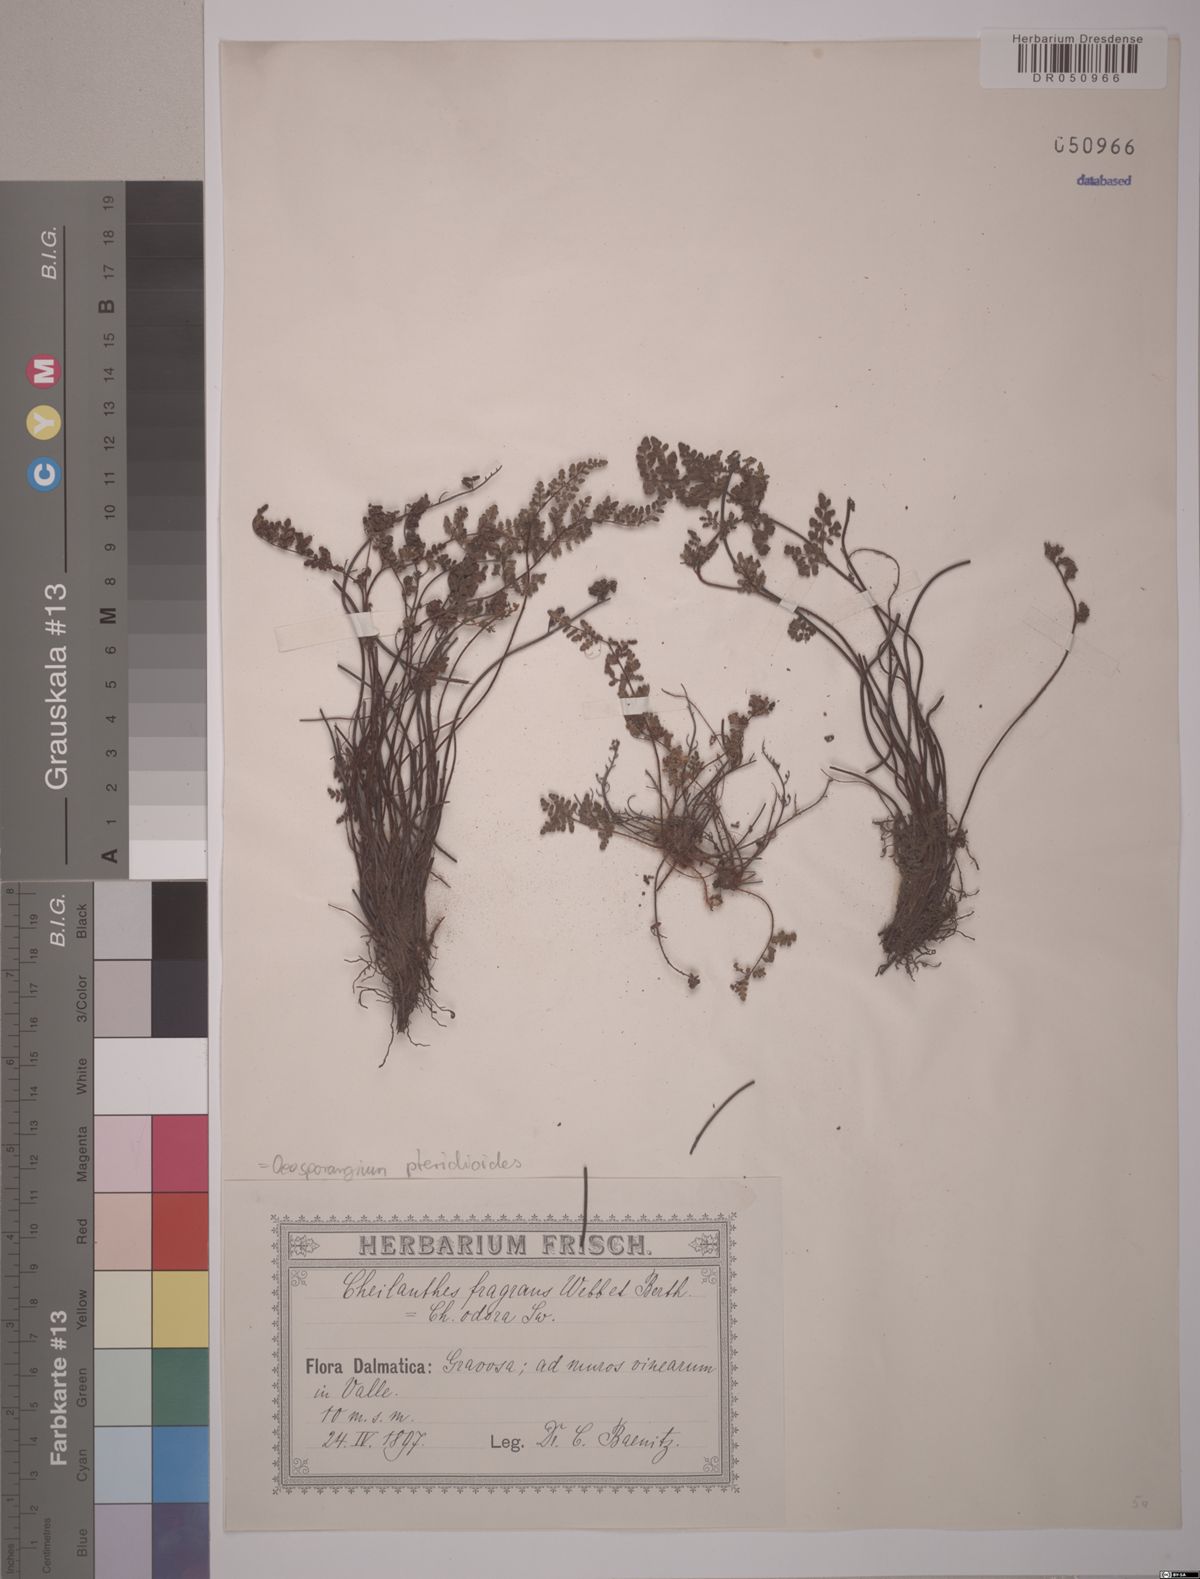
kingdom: Plantae
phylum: Tracheophyta
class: Polypodiopsida
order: Polypodiales
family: Pteridaceae
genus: Oeosporangium
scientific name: Oeosporangium pteridioides
